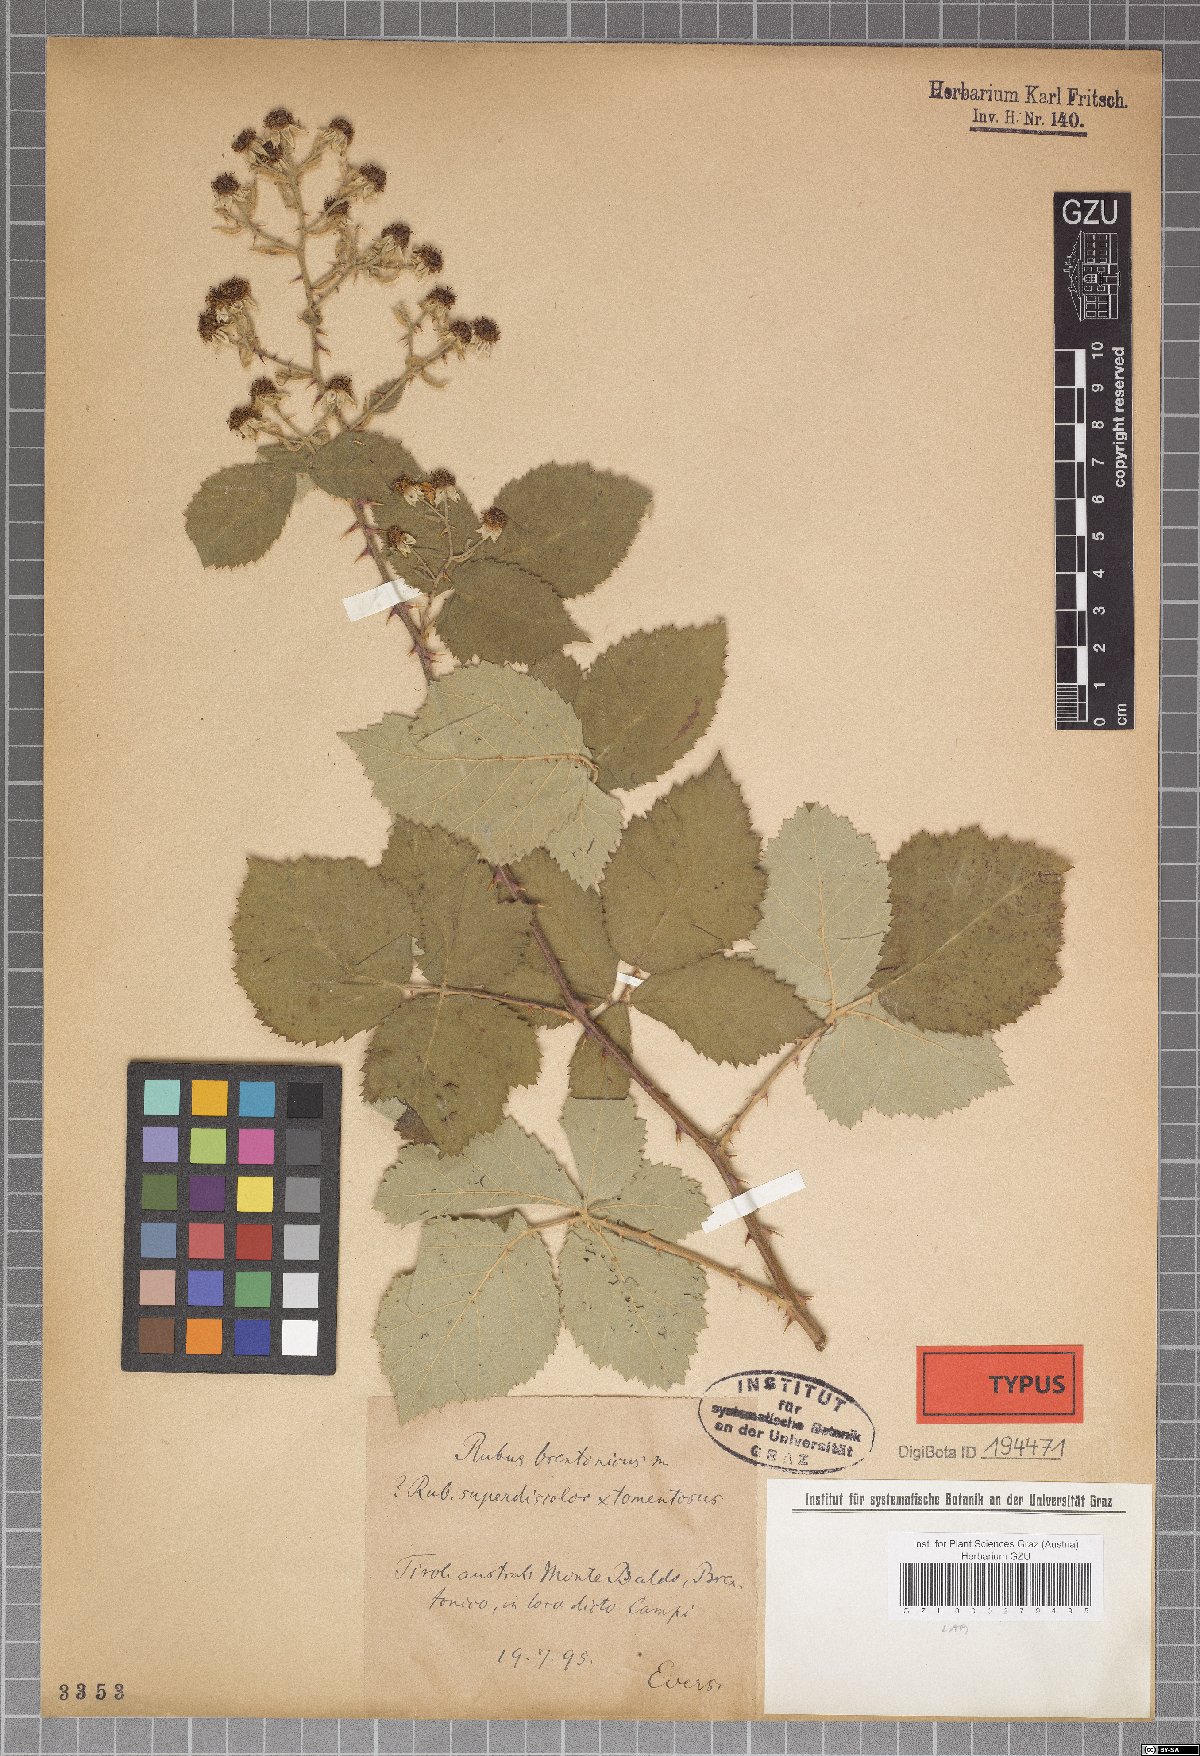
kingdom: Plantae
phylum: Tracheophyta
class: Magnoliopsida
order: Rosales
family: Rosaceae
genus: Rubus
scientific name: Rubus brentonicus
